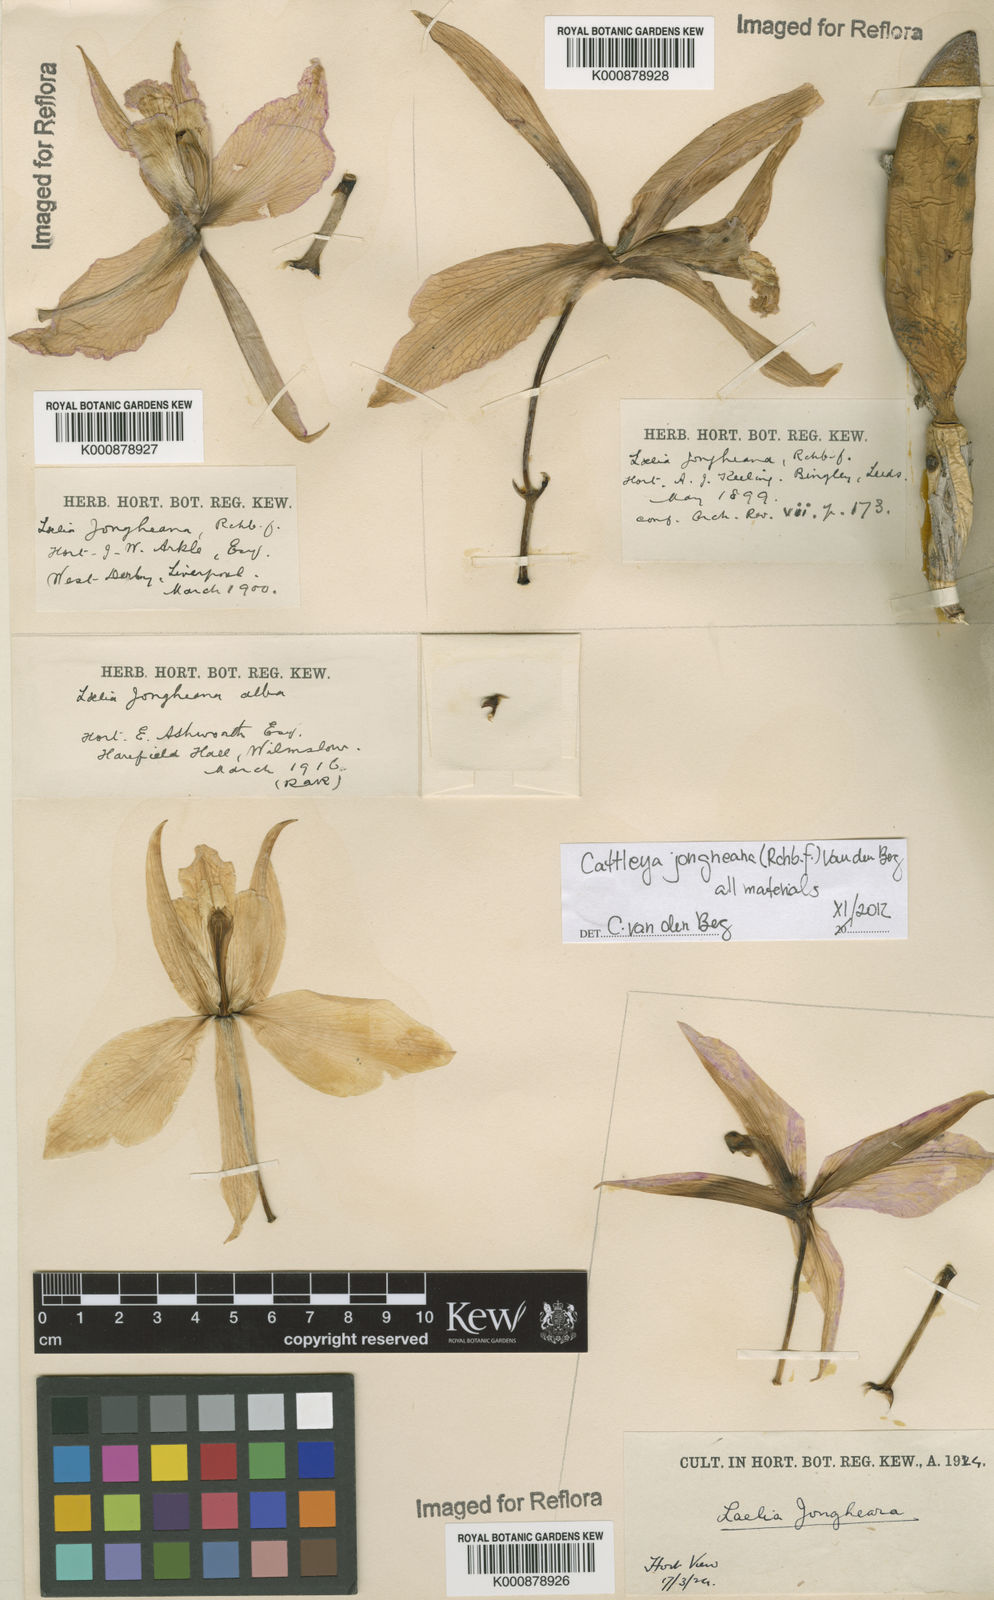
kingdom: Plantae
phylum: Tracheophyta
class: Liliopsida
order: Asparagales
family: Orchidaceae
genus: Cattleya
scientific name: Cattleya jongheana
